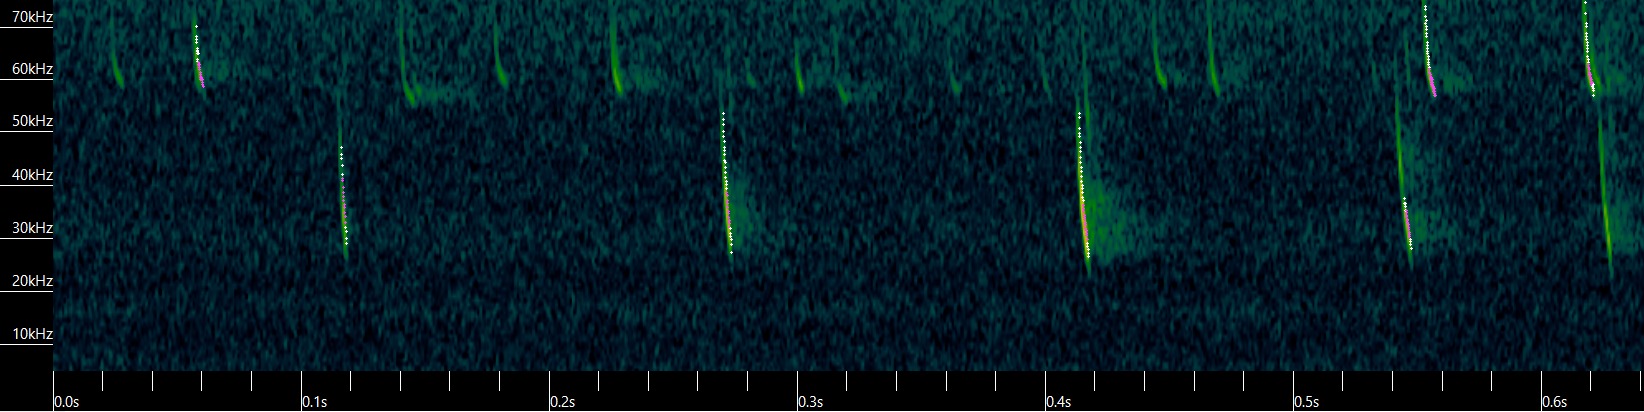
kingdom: Animalia
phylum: Chordata
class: Mammalia
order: Chiroptera
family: Vespertilionidae
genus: Plecotus
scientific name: Plecotus auritus
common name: Brun langøre
